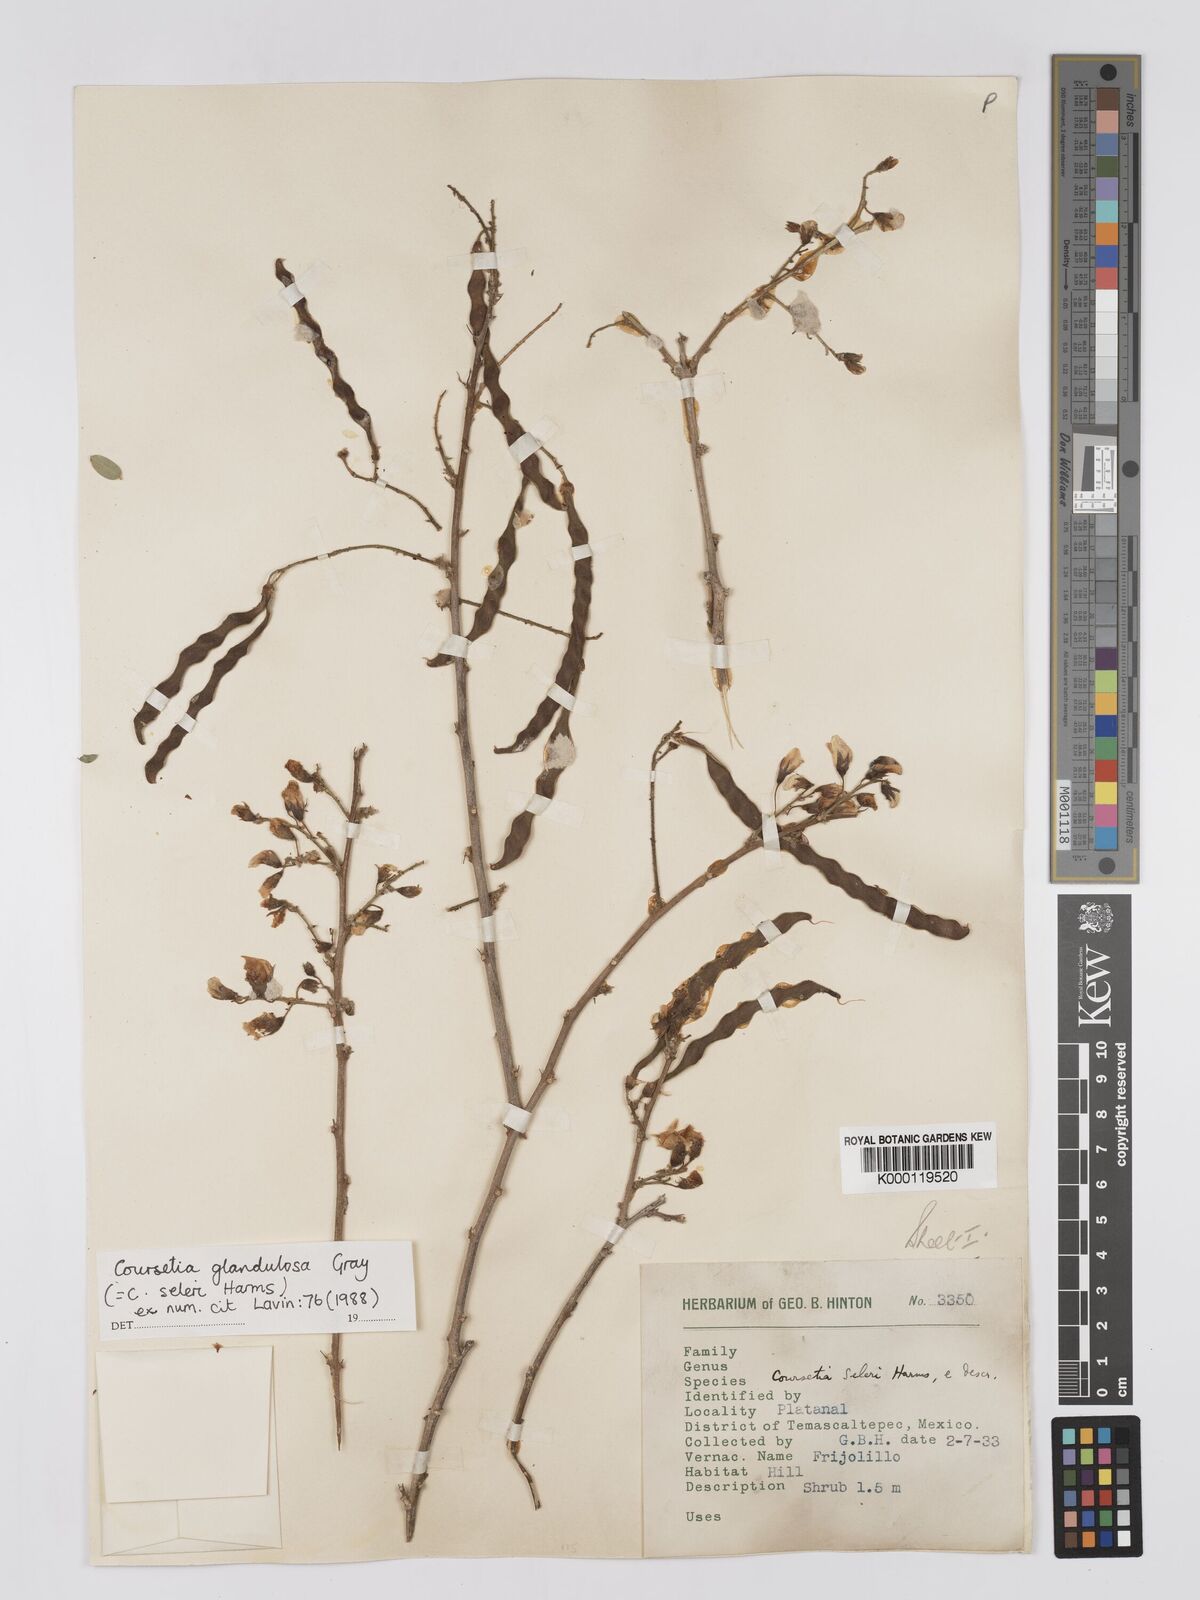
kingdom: Plantae
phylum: Tracheophyta
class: Magnoliopsida
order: Fabales
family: Fabaceae
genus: Coursetia
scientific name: Coursetia glandulosa
